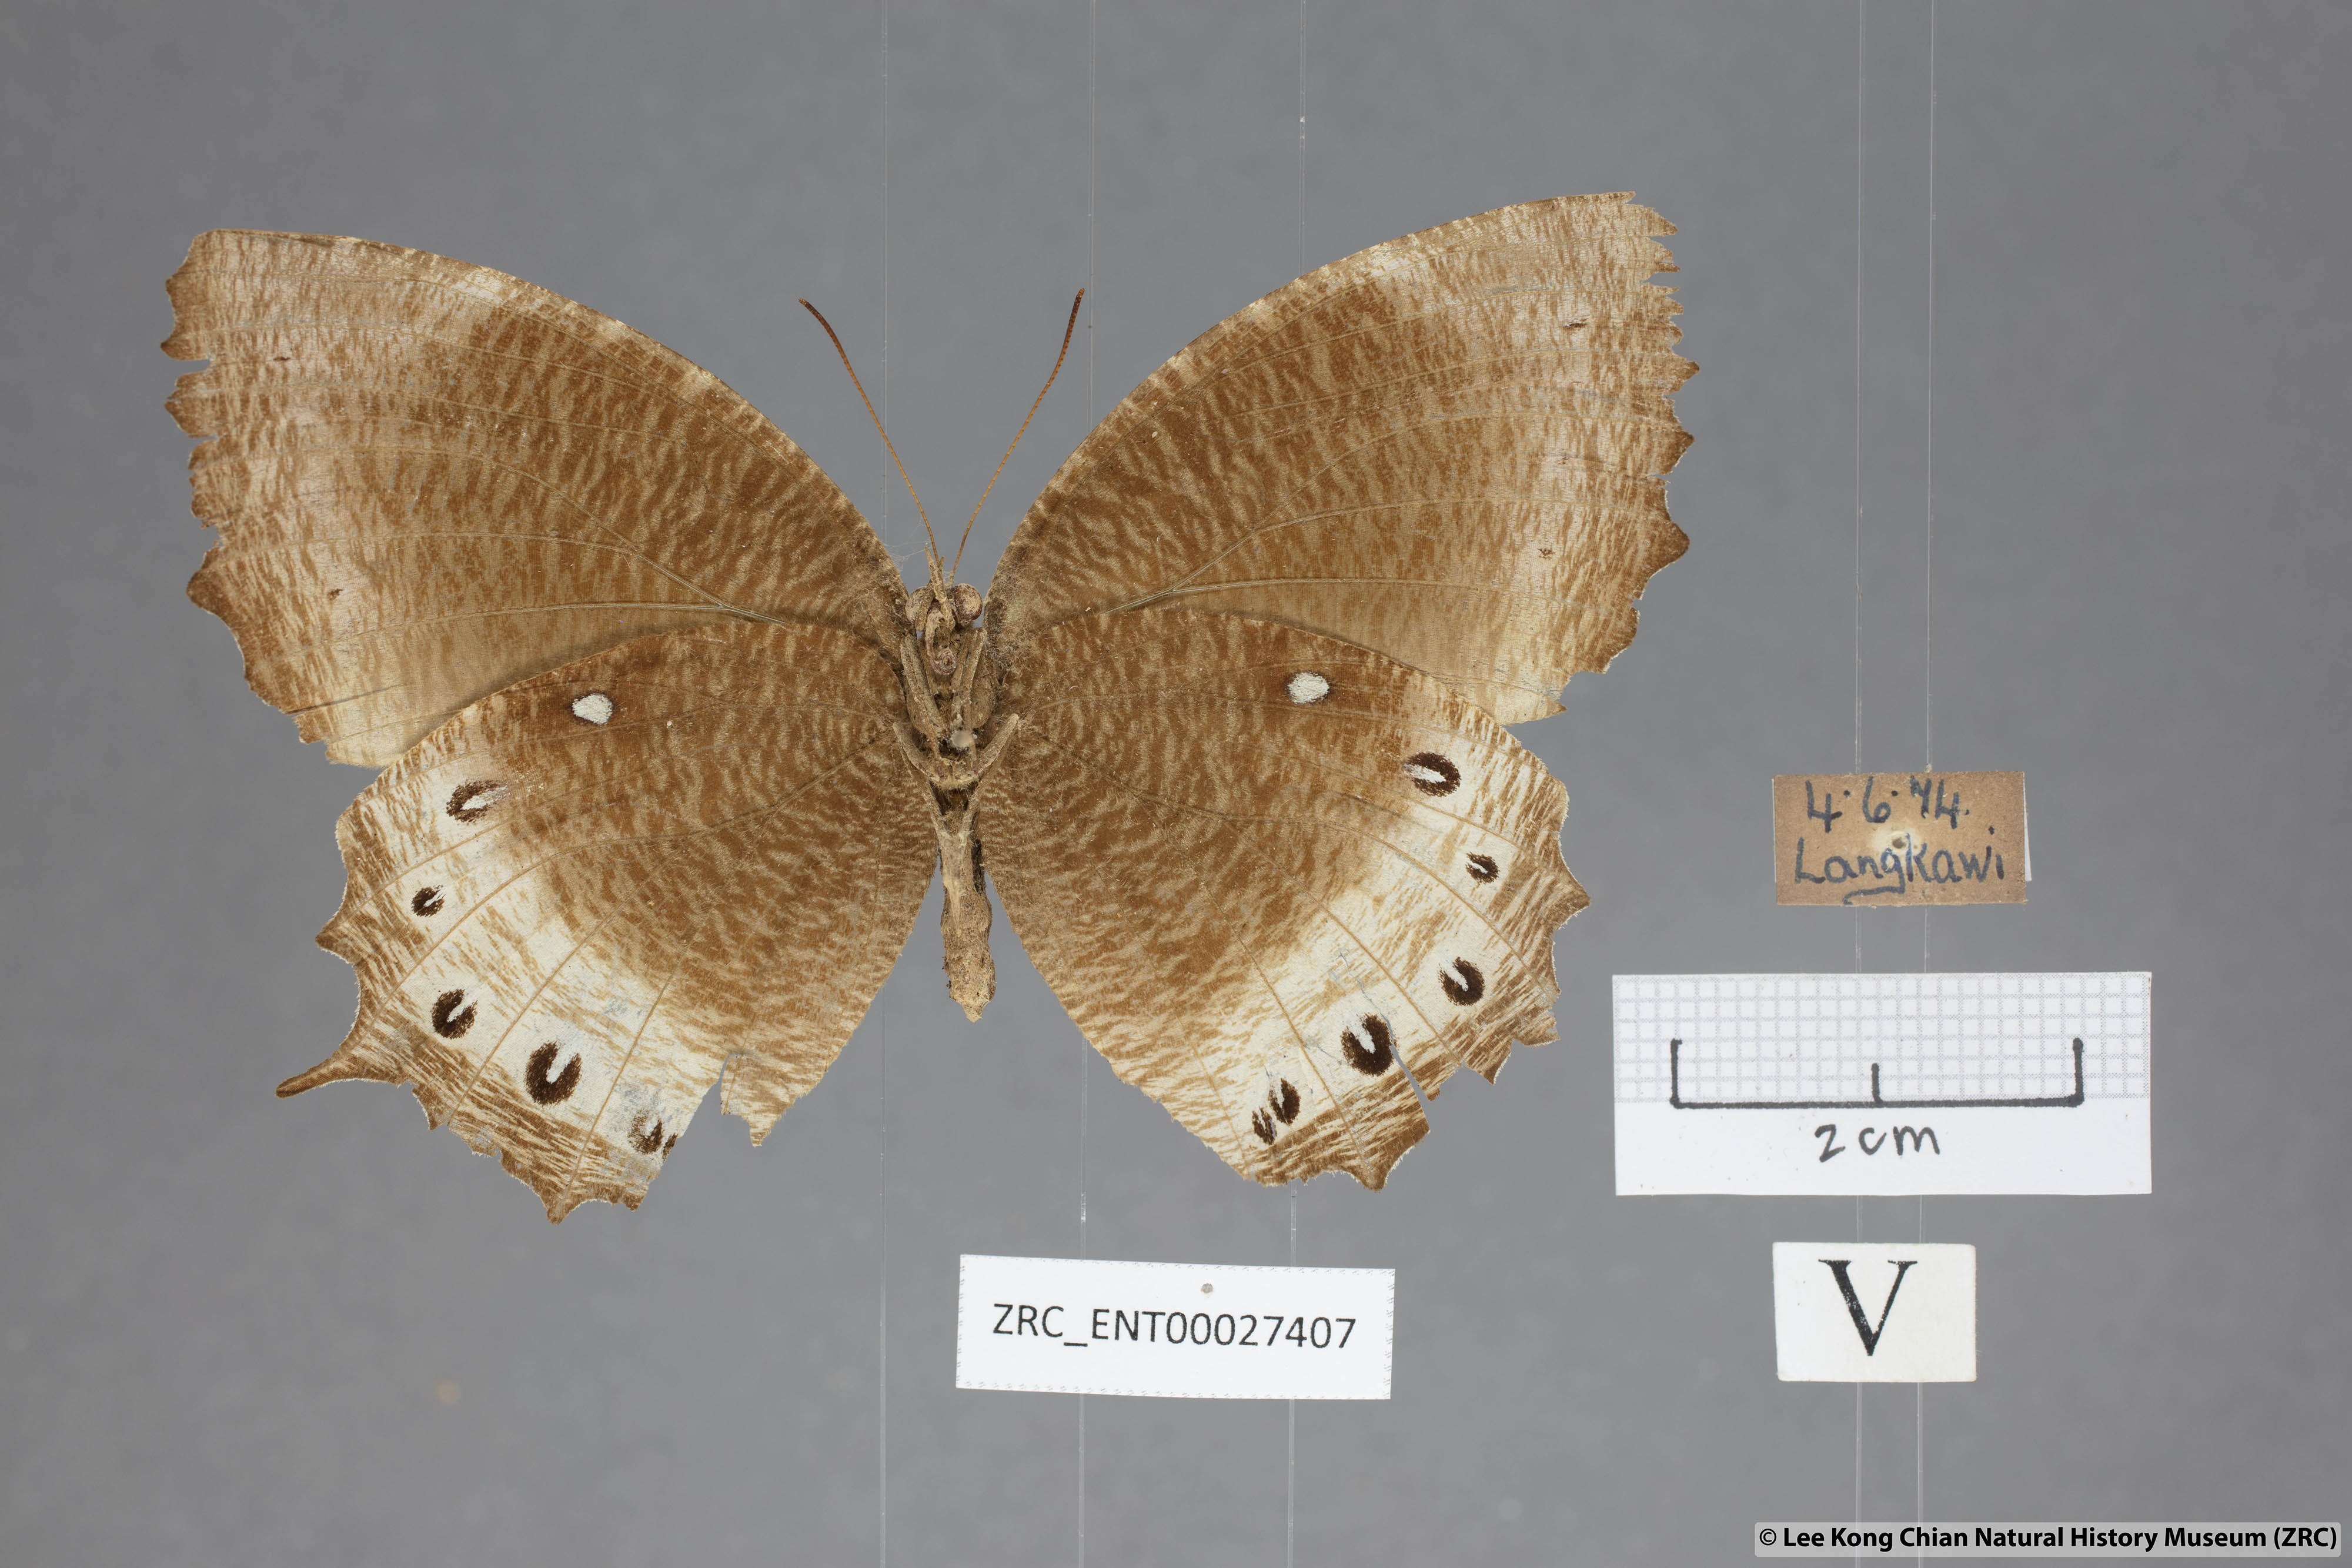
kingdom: Animalia
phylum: Arthropoda
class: Insecta
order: Lepidoptera
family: Nymphalidae
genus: Elymnias
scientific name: Elymnias panthera
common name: Tawny palmfly
